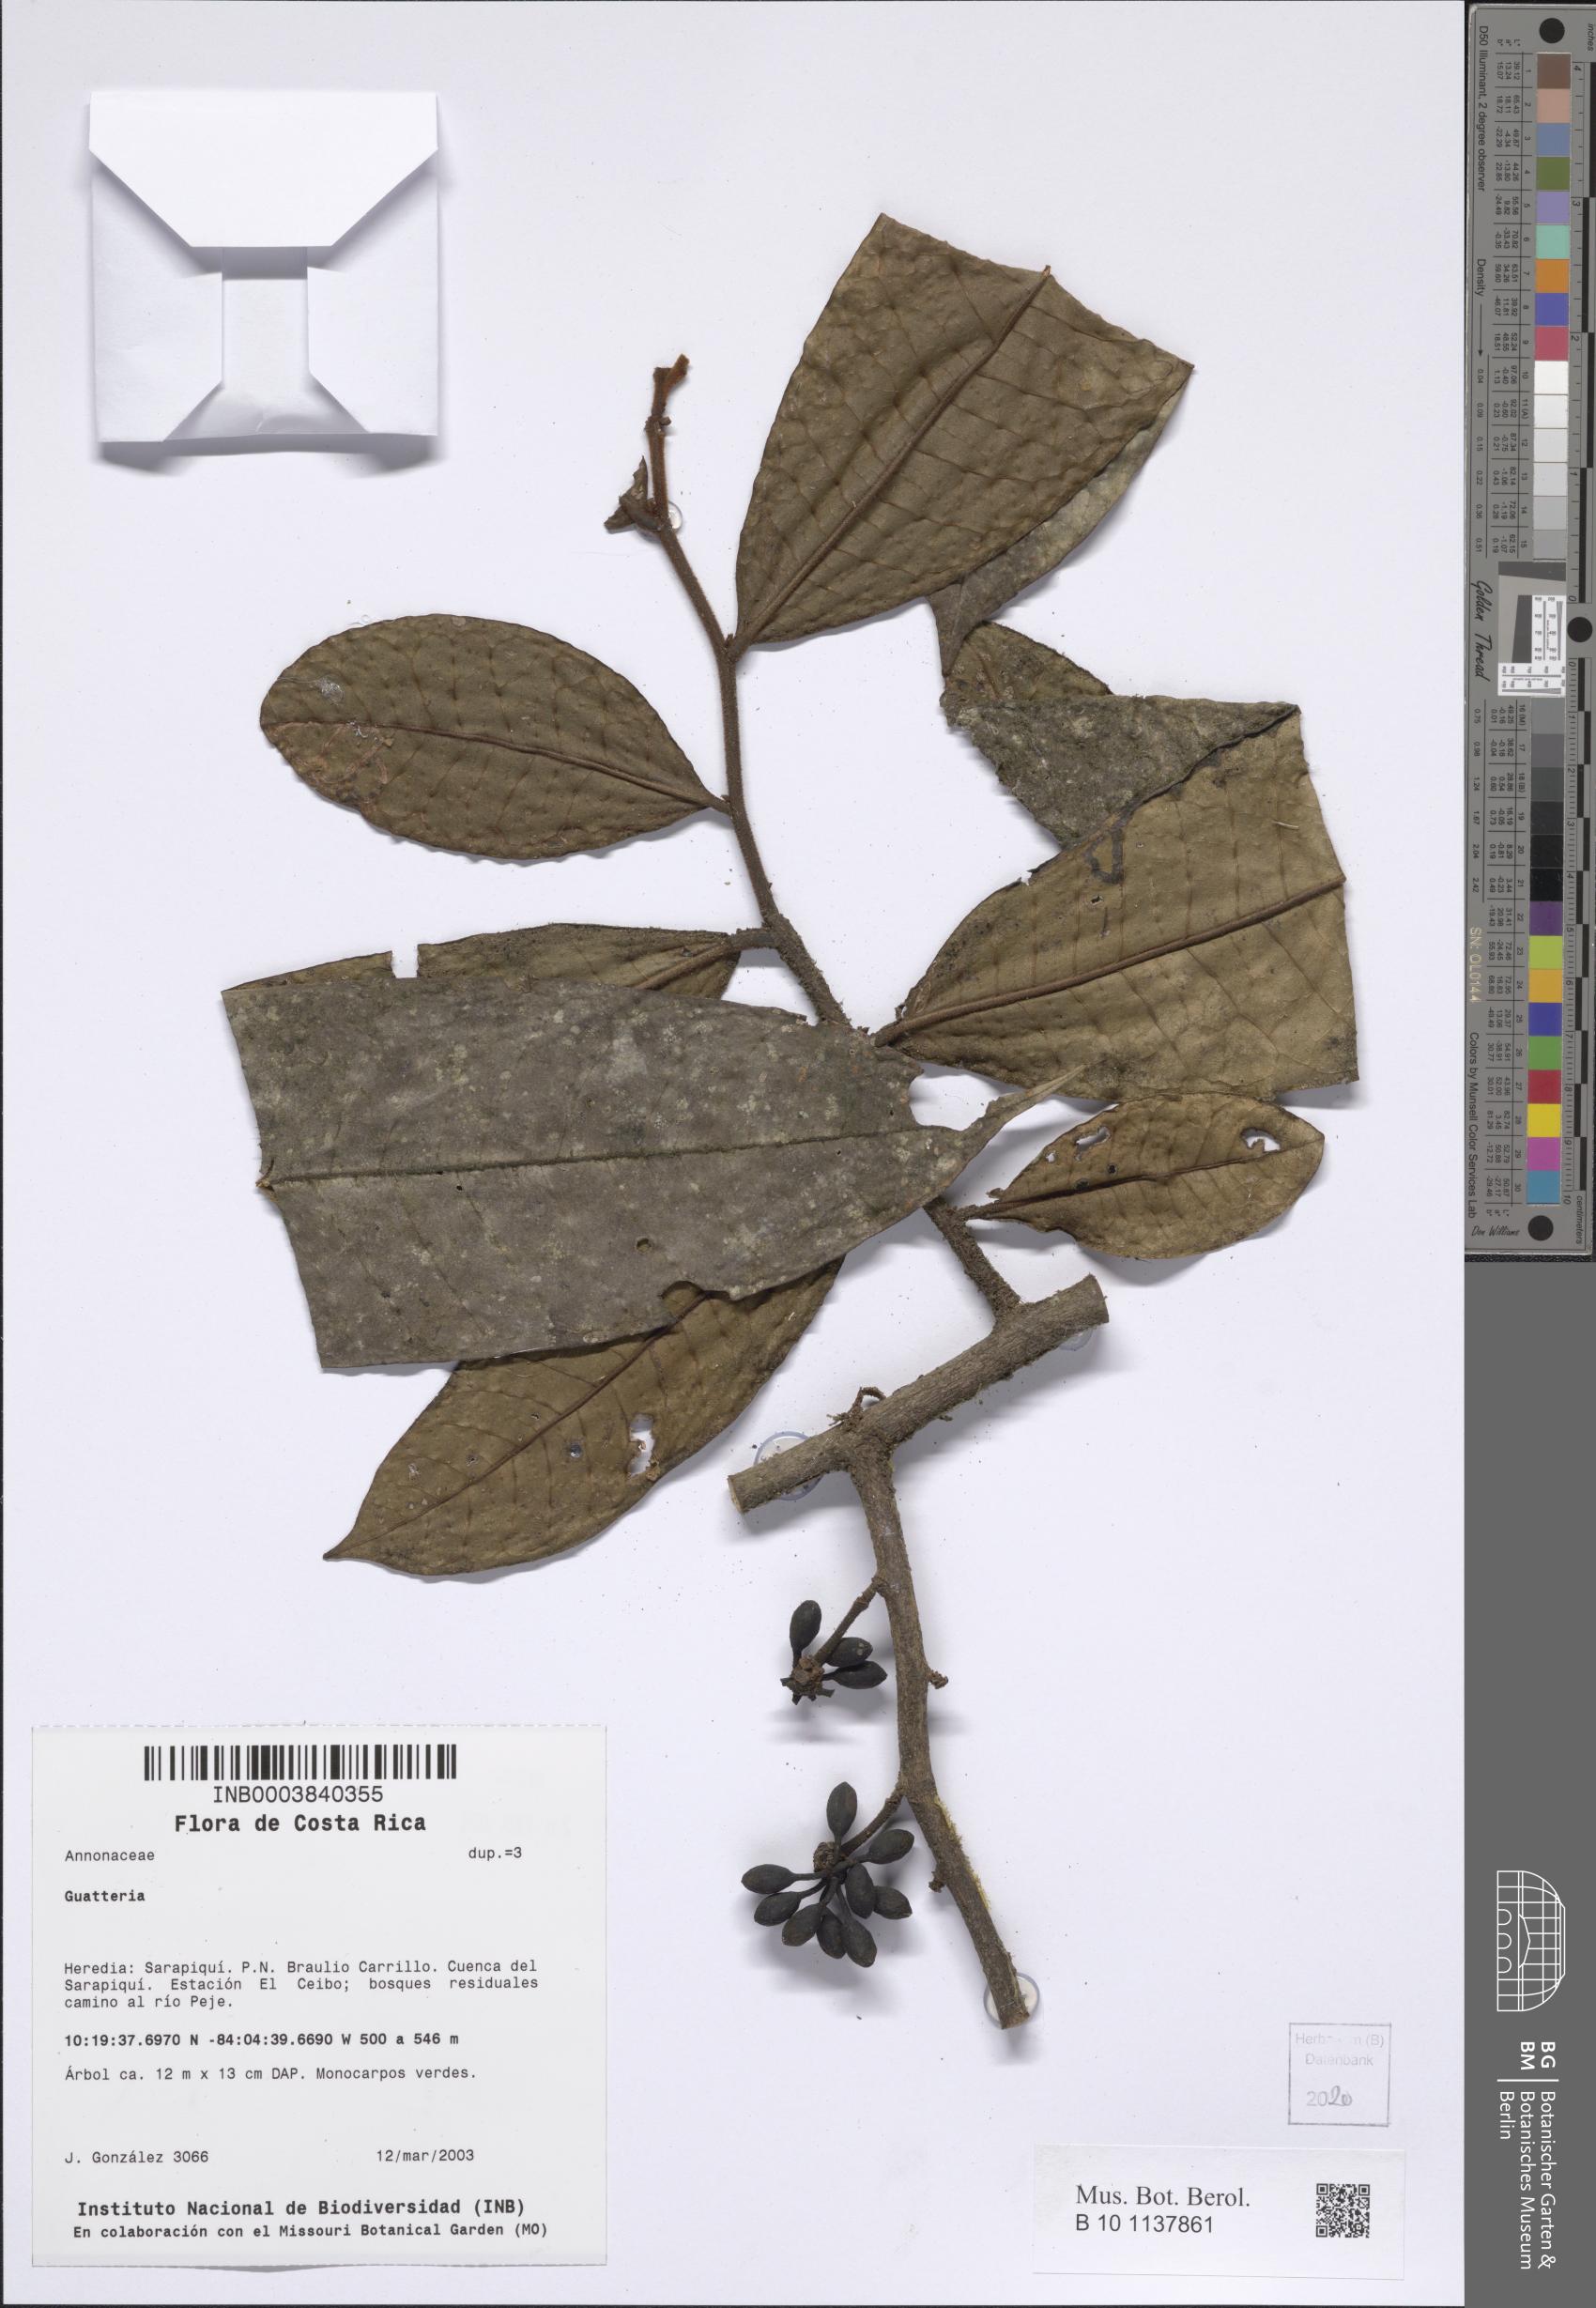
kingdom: Plantae
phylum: Tracheophyta
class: Magnoliopsida
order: Magnoliales
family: Annonaceae
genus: Guatteria
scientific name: Guatteria
